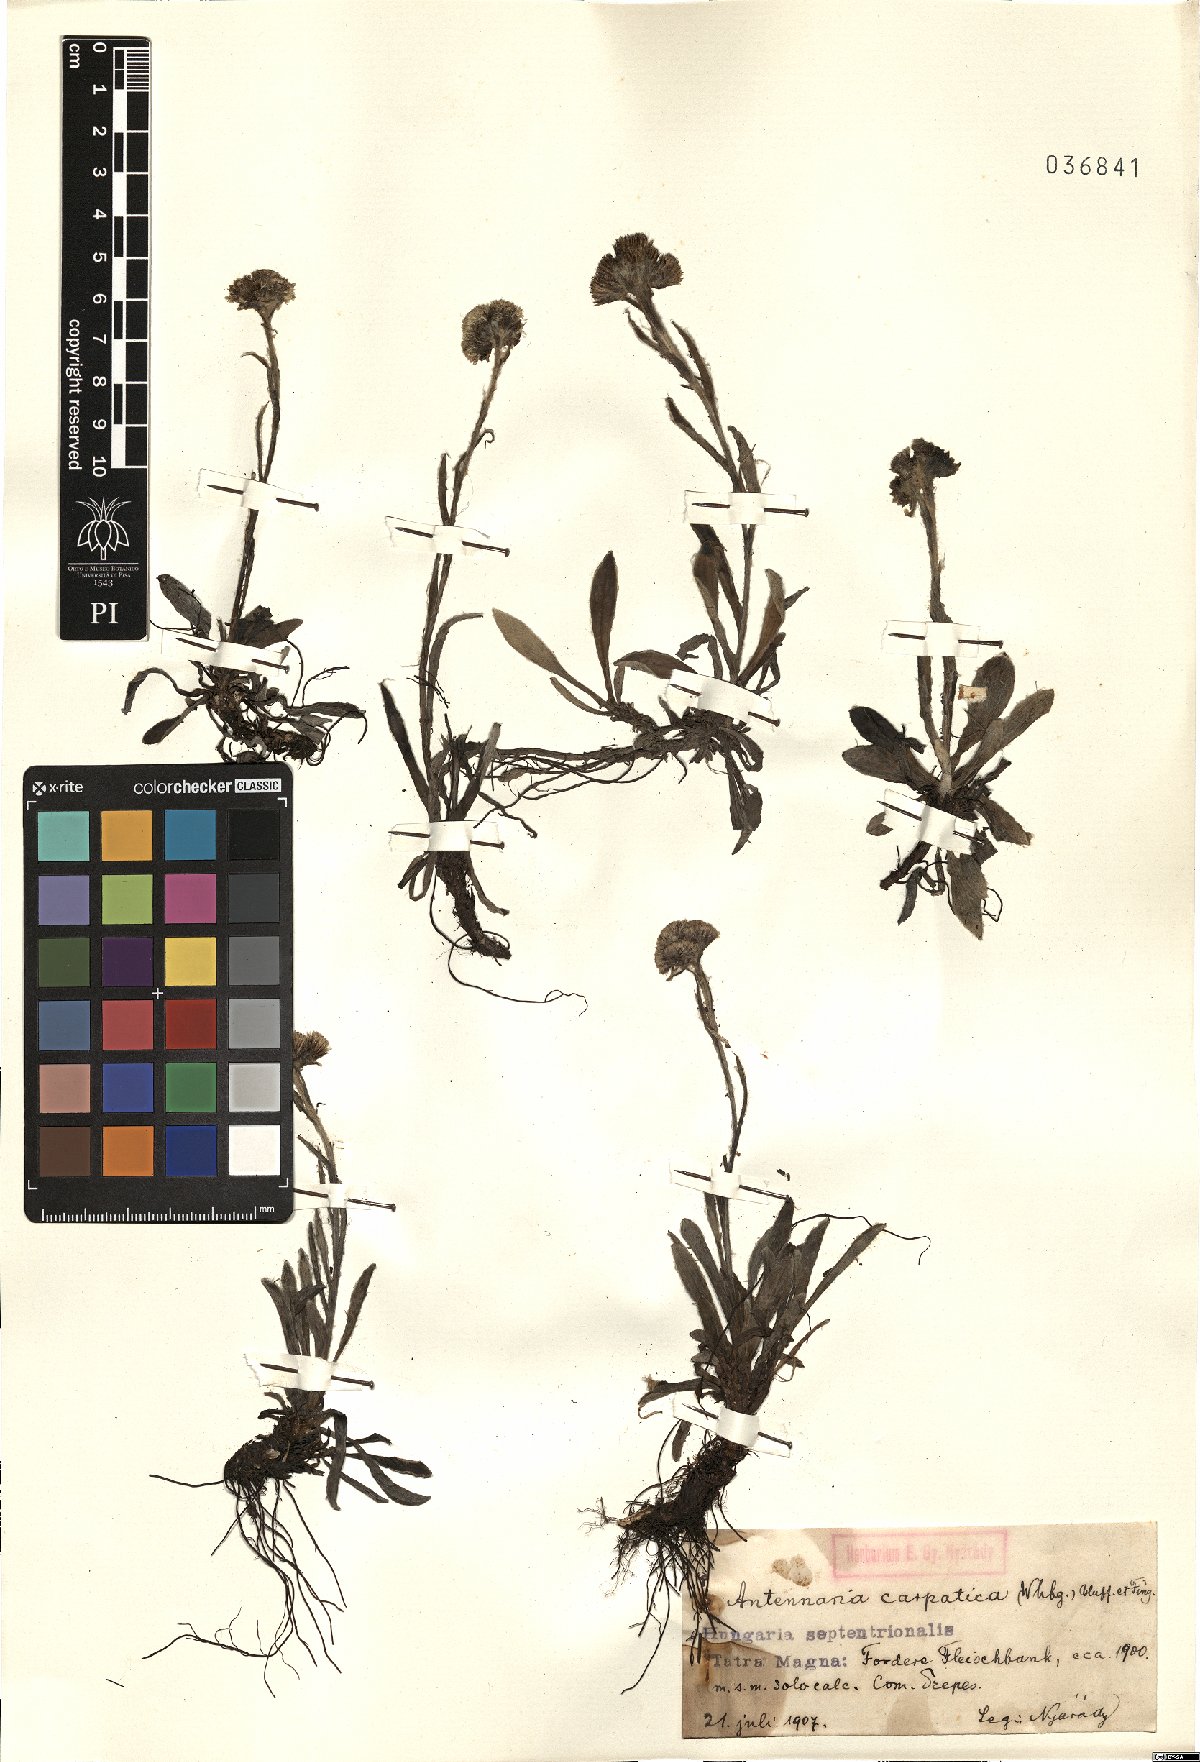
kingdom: Plantae
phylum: Tracheophyta
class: Magnoliopsida
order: Asterales
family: Asteraceae
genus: Antennaria
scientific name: Antennaria carpatica
